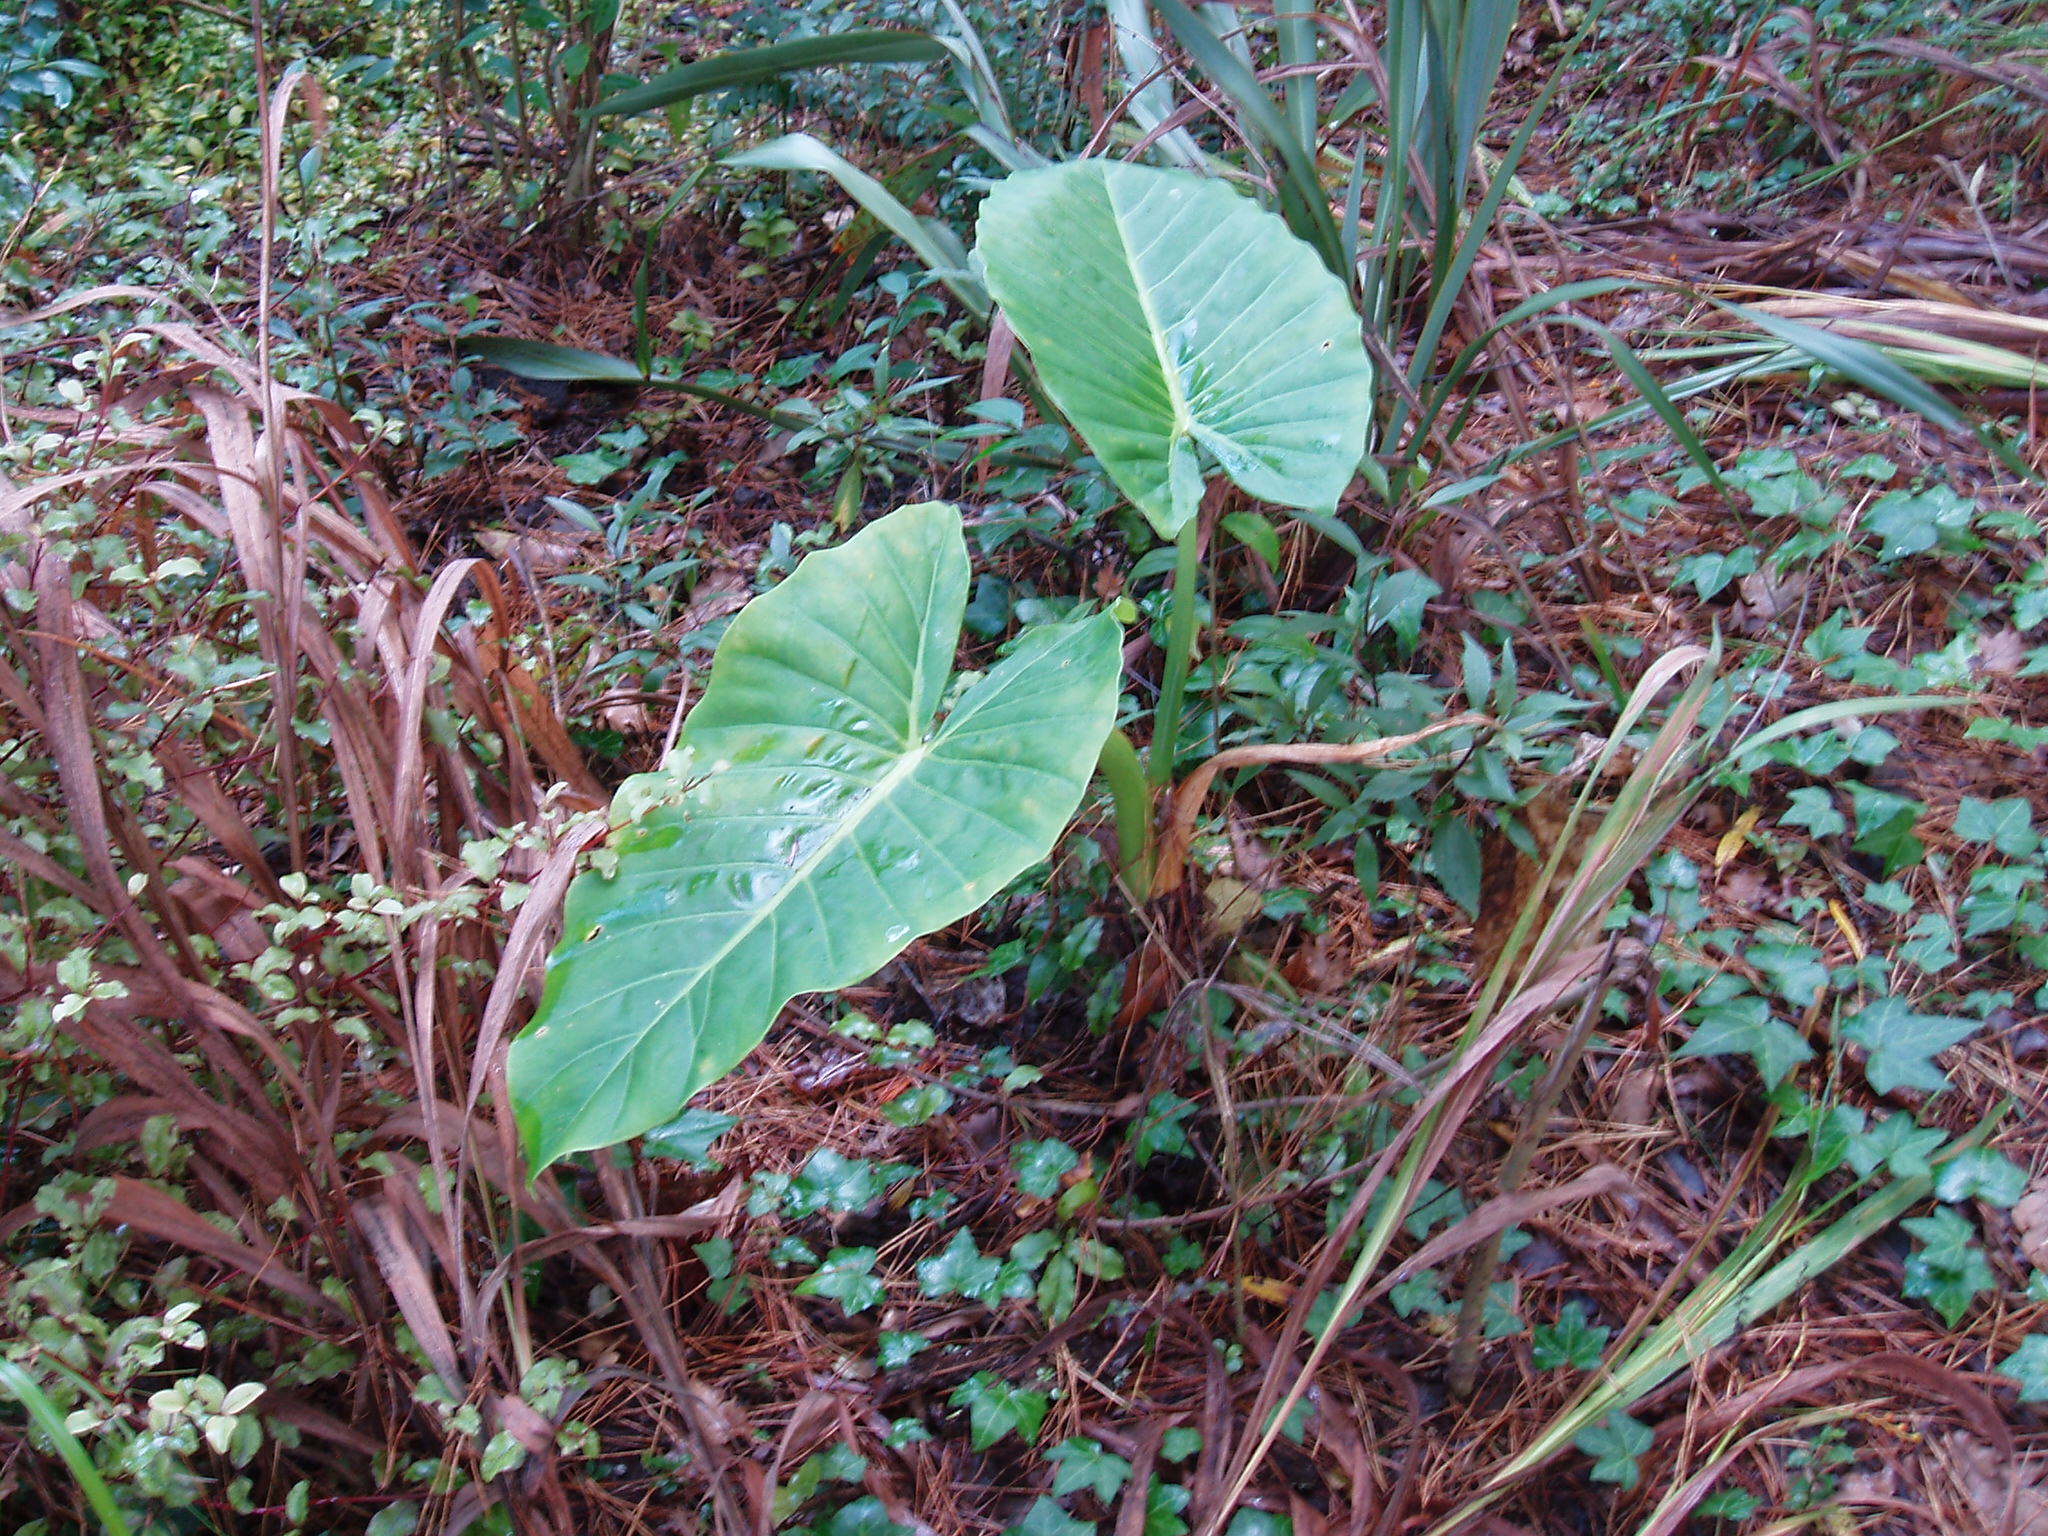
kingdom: Plantae
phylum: Tracheophyta
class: Liliopsida
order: Alismatales
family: Araceae
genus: Alocasia
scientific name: Alocasia brisbanensis
